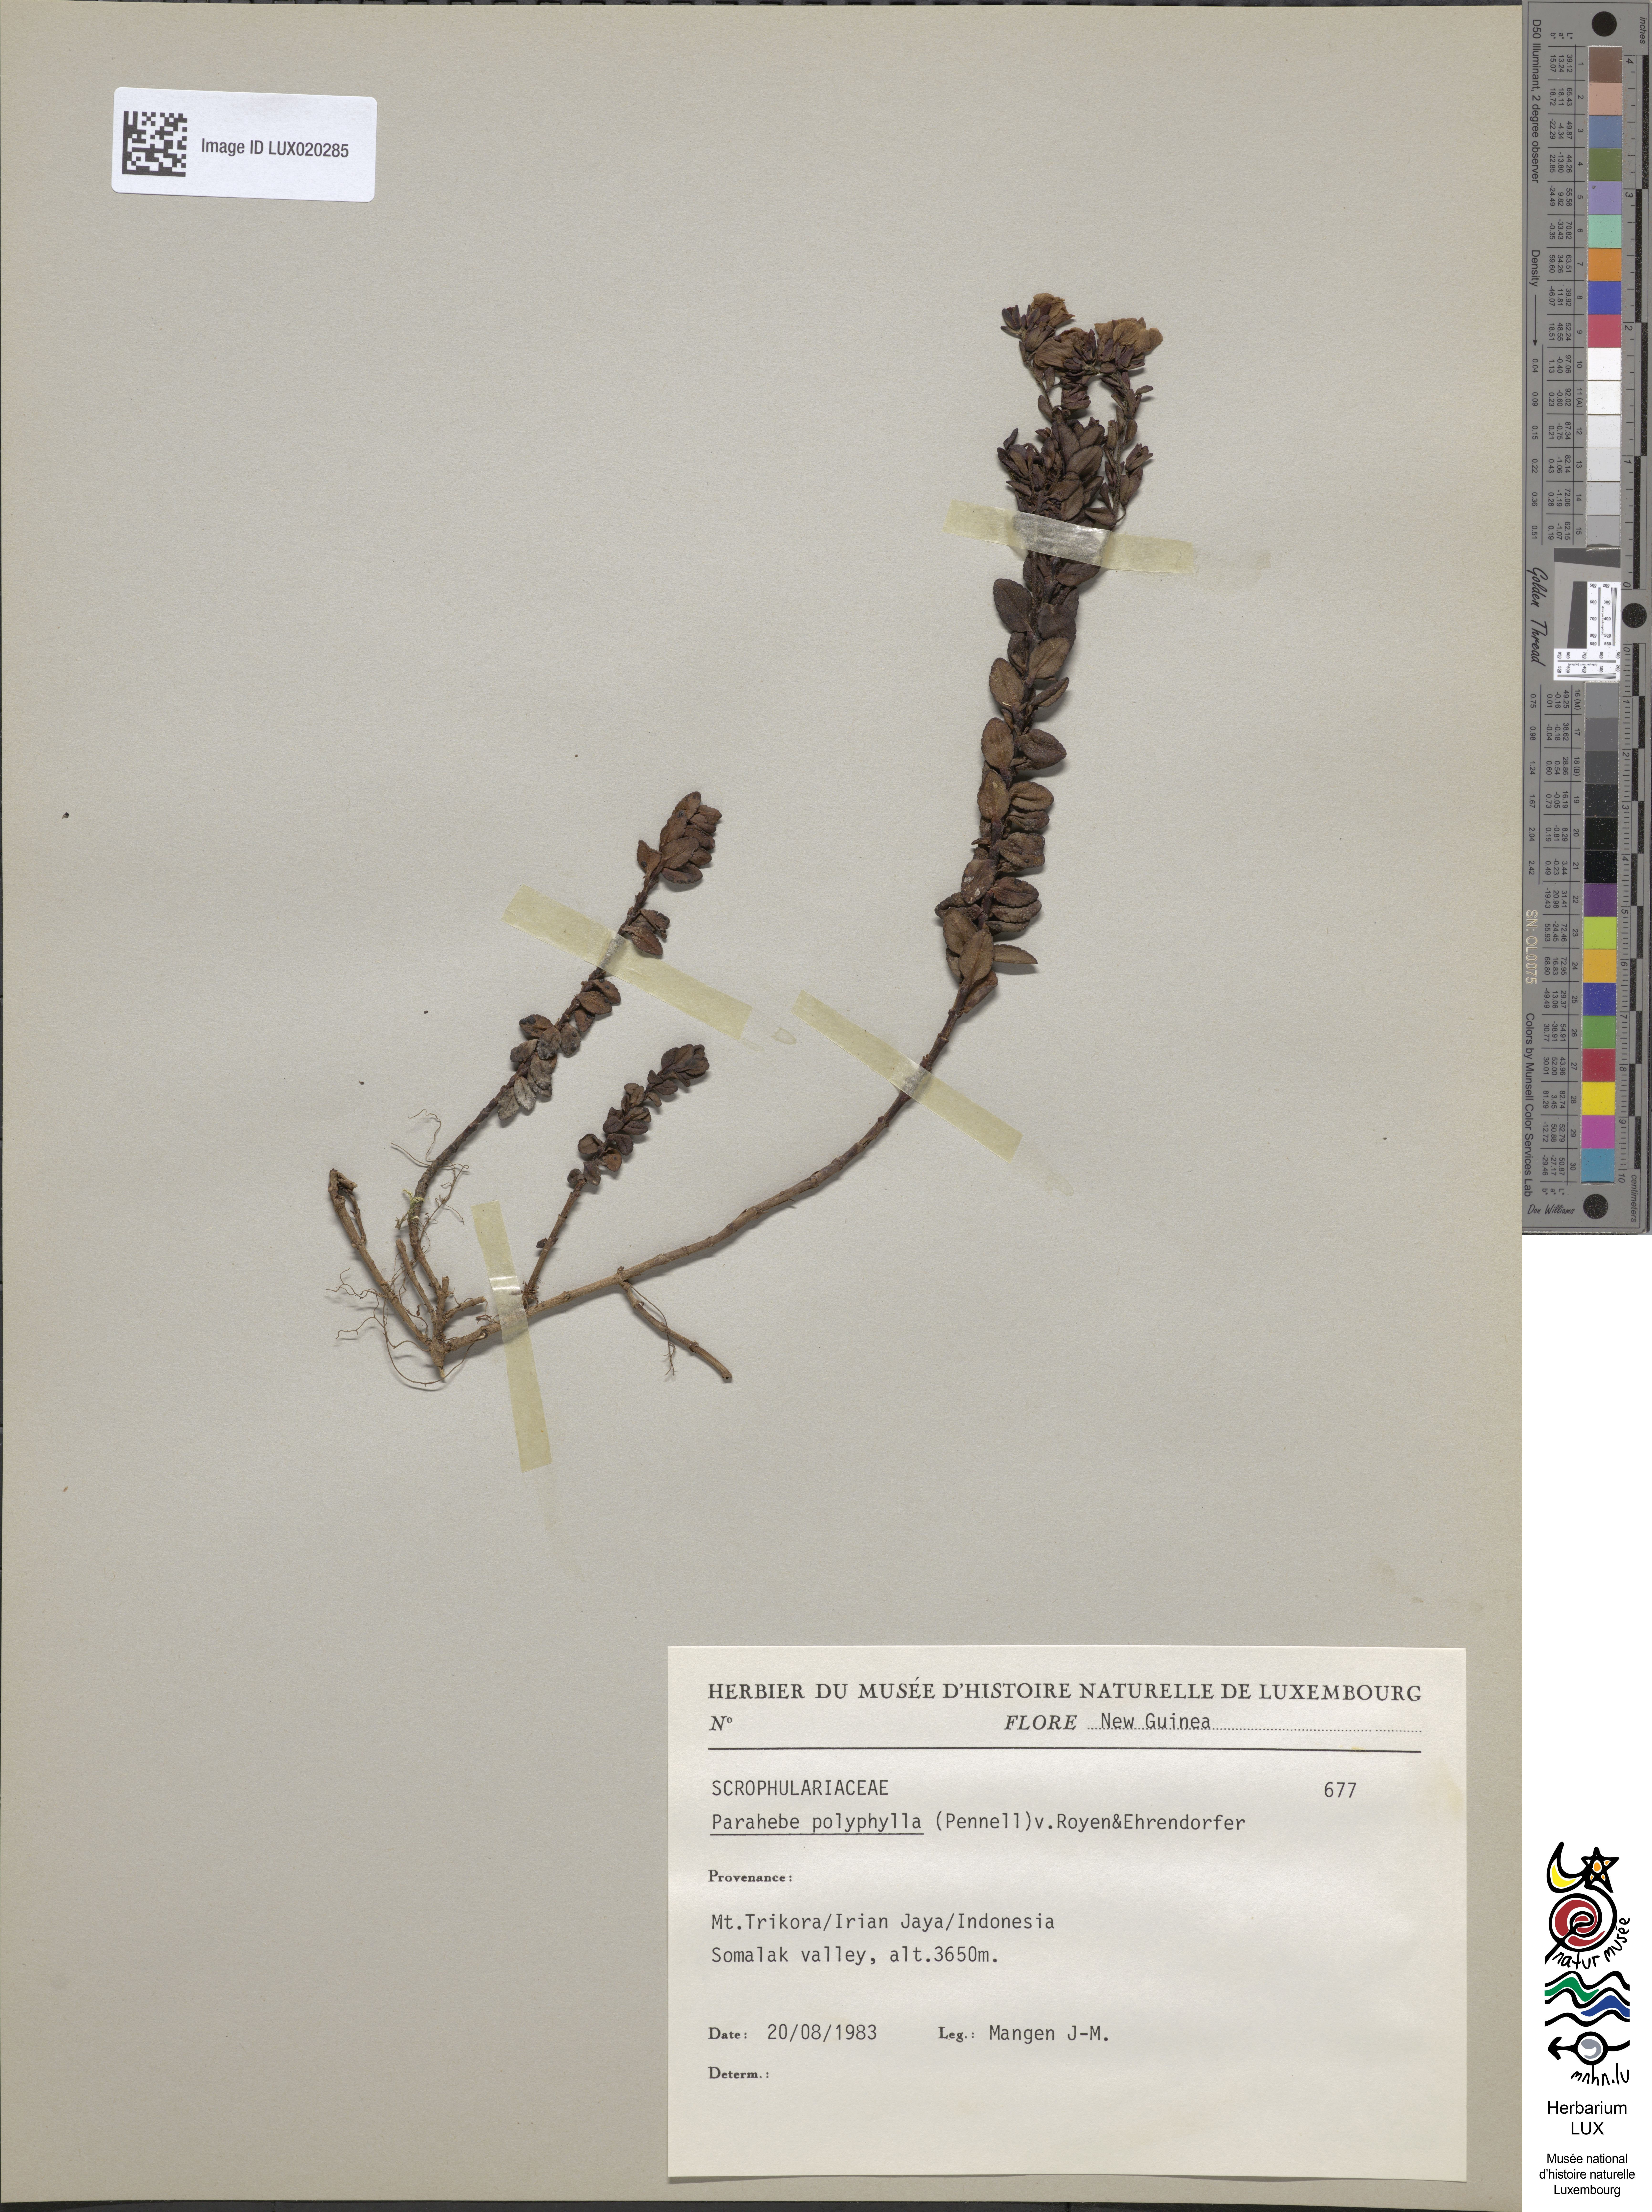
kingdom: Plantae
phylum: Tracheophyta
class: Magnoliopsida
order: Lamiales
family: Plantaginaceae
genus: Veronica
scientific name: Veronica wilhelminensis
